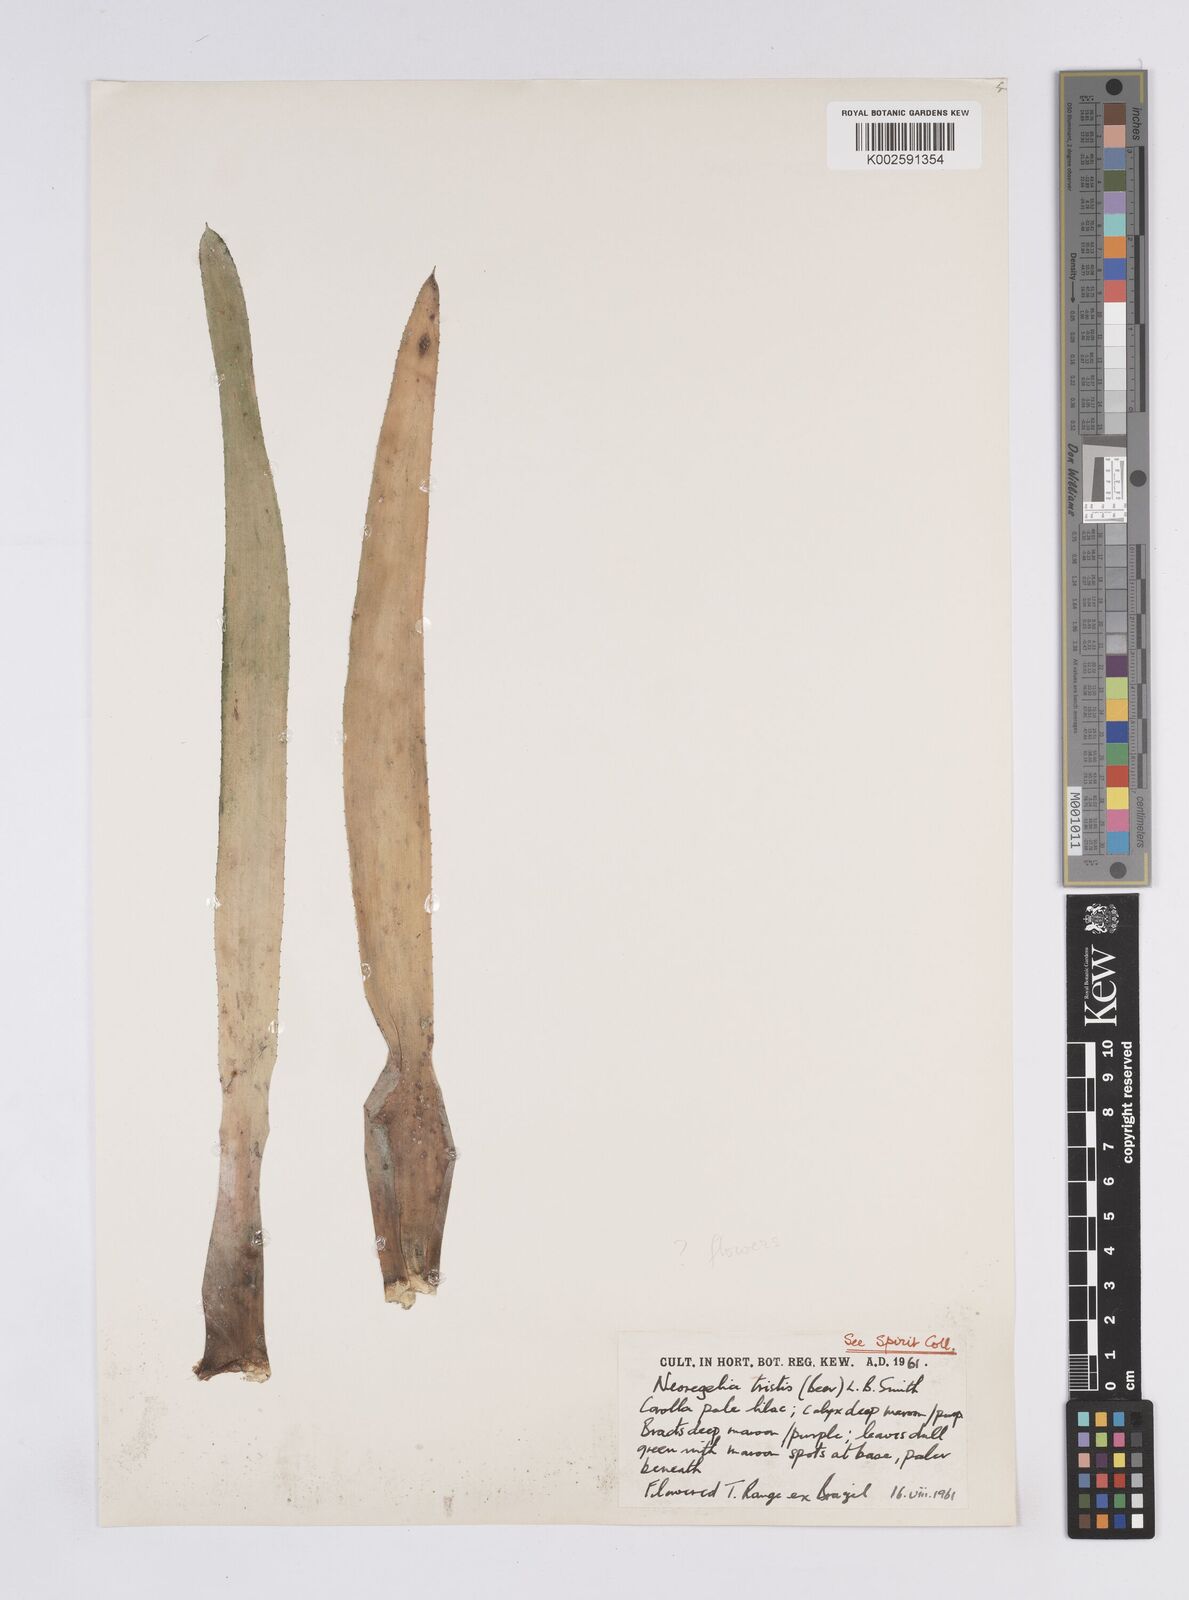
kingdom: Plantae
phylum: Tracheophyta
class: Liliopsida
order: Poales
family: Bromeliaceae
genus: Neoregelia
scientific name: Neoregelia tristis
